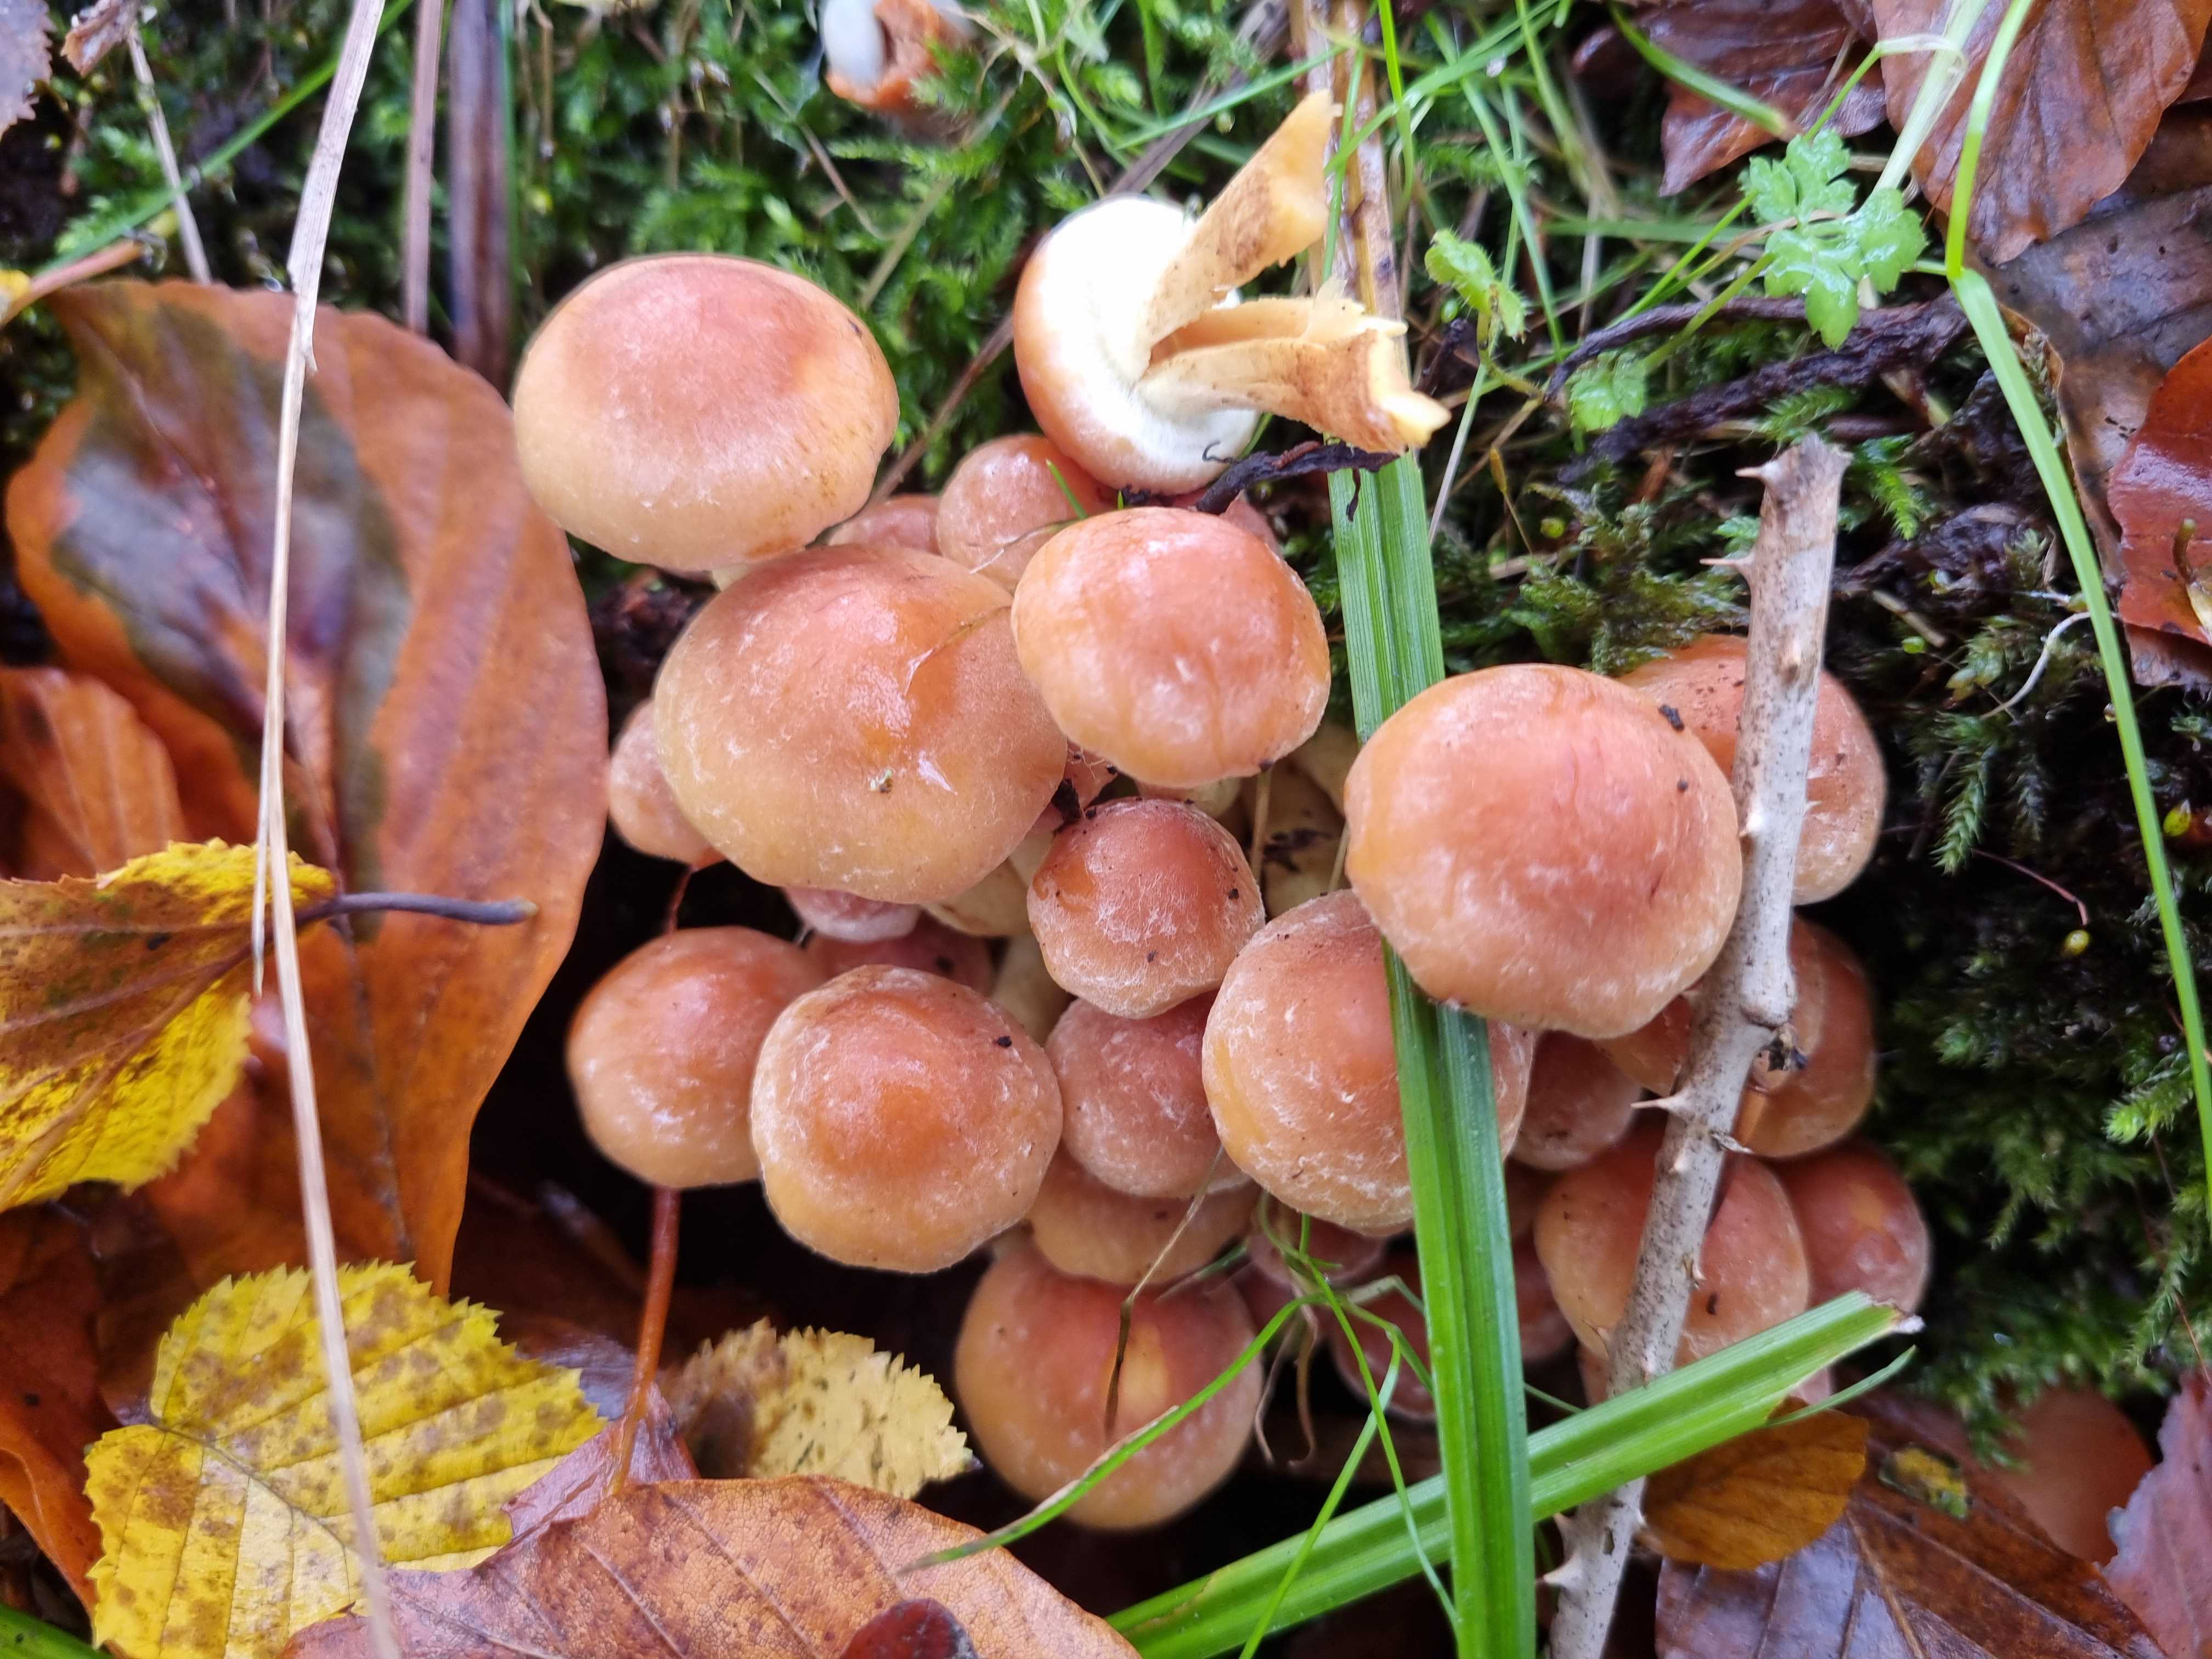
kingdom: Fungi
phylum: Basidiomycota
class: Agaricomycetes
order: Agaricales
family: Strophariaceae
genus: Hypholoma
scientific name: Hypholoma fasciculare
